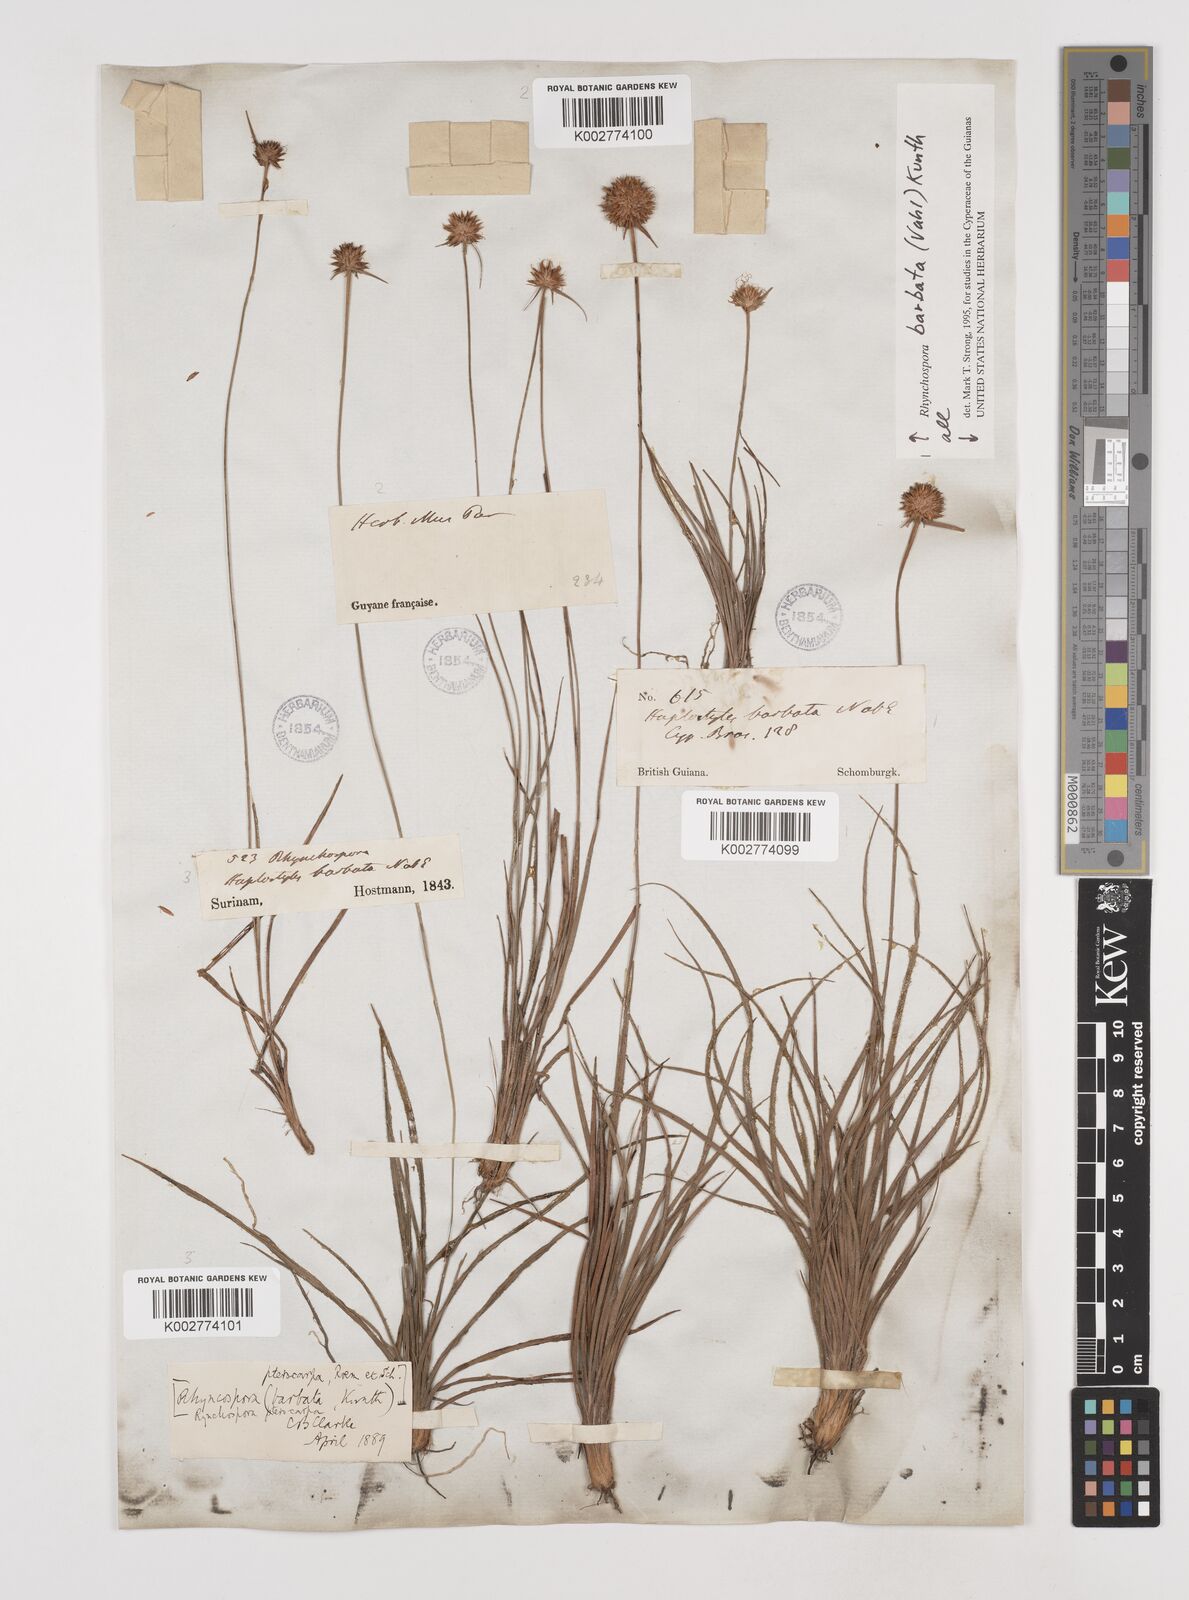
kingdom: Plantae
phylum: Tracheophyta
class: Liliopsida
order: Poales
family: Cyperaceae
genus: Rhynchospora
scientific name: Rhynchospora barbata
